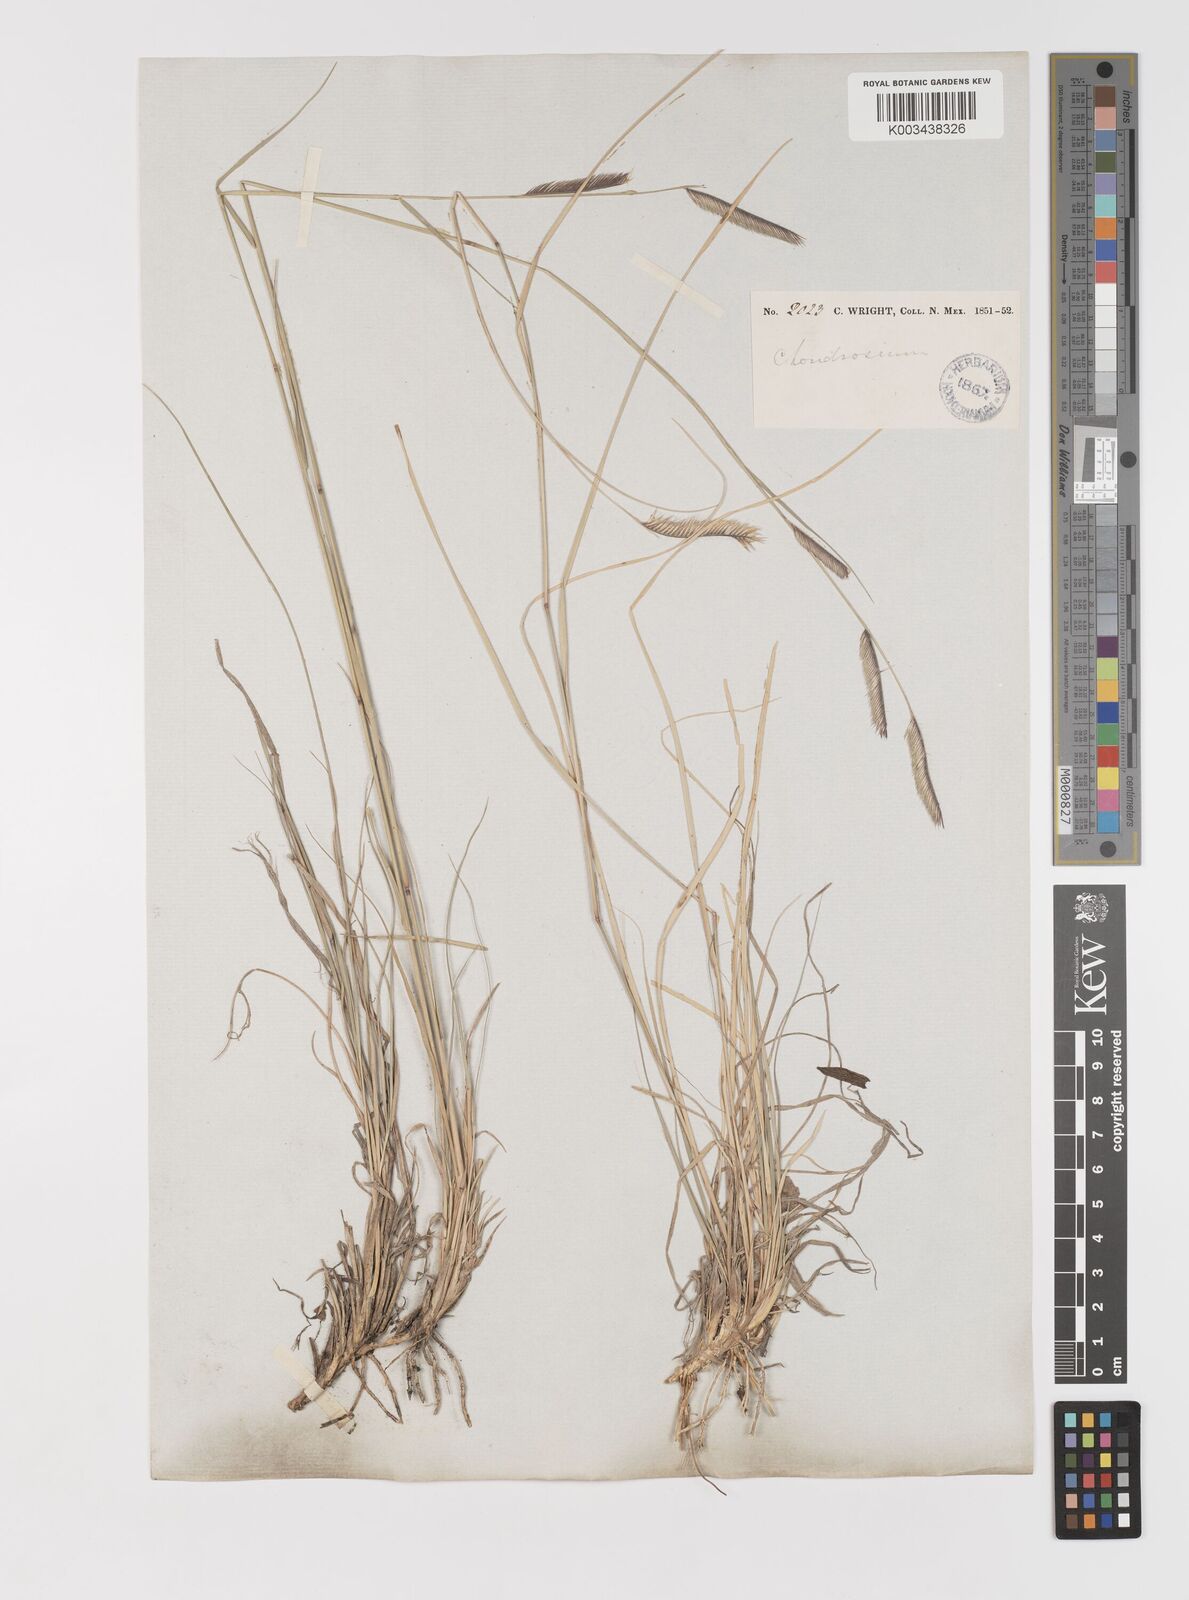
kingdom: Plantae
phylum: Tracheophyta
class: Liliopsida
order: Poales
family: Poaceae
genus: Bouteloua
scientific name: Bouteloua
